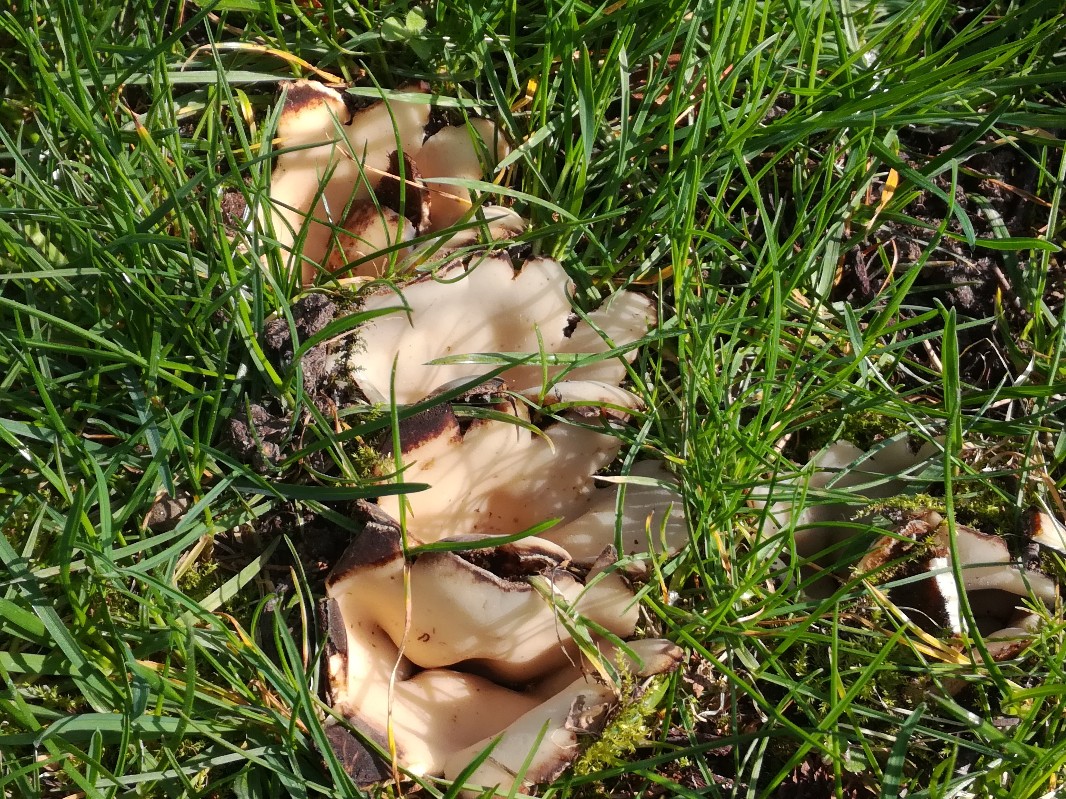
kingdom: Fungi
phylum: Ascomycota
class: Pezizomycetes
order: Pezizales
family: Pyronemataceae
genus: Geopora
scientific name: Geopora sumneriana
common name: vår-jordbæger
